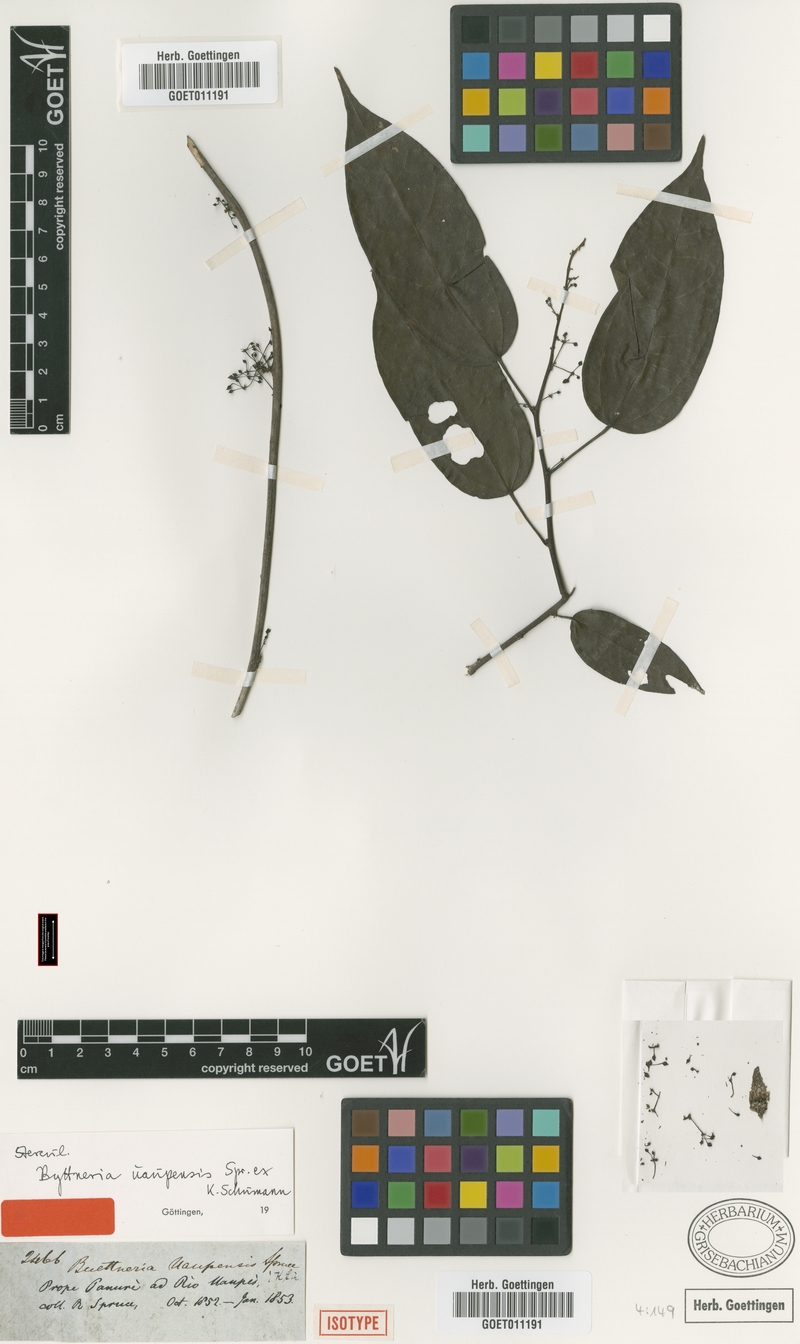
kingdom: Plantae
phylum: Tracheophyta
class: Magnoliopsida
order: Malvales
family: Malvaceae
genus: Byttneria
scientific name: Byttneria uaupensis
